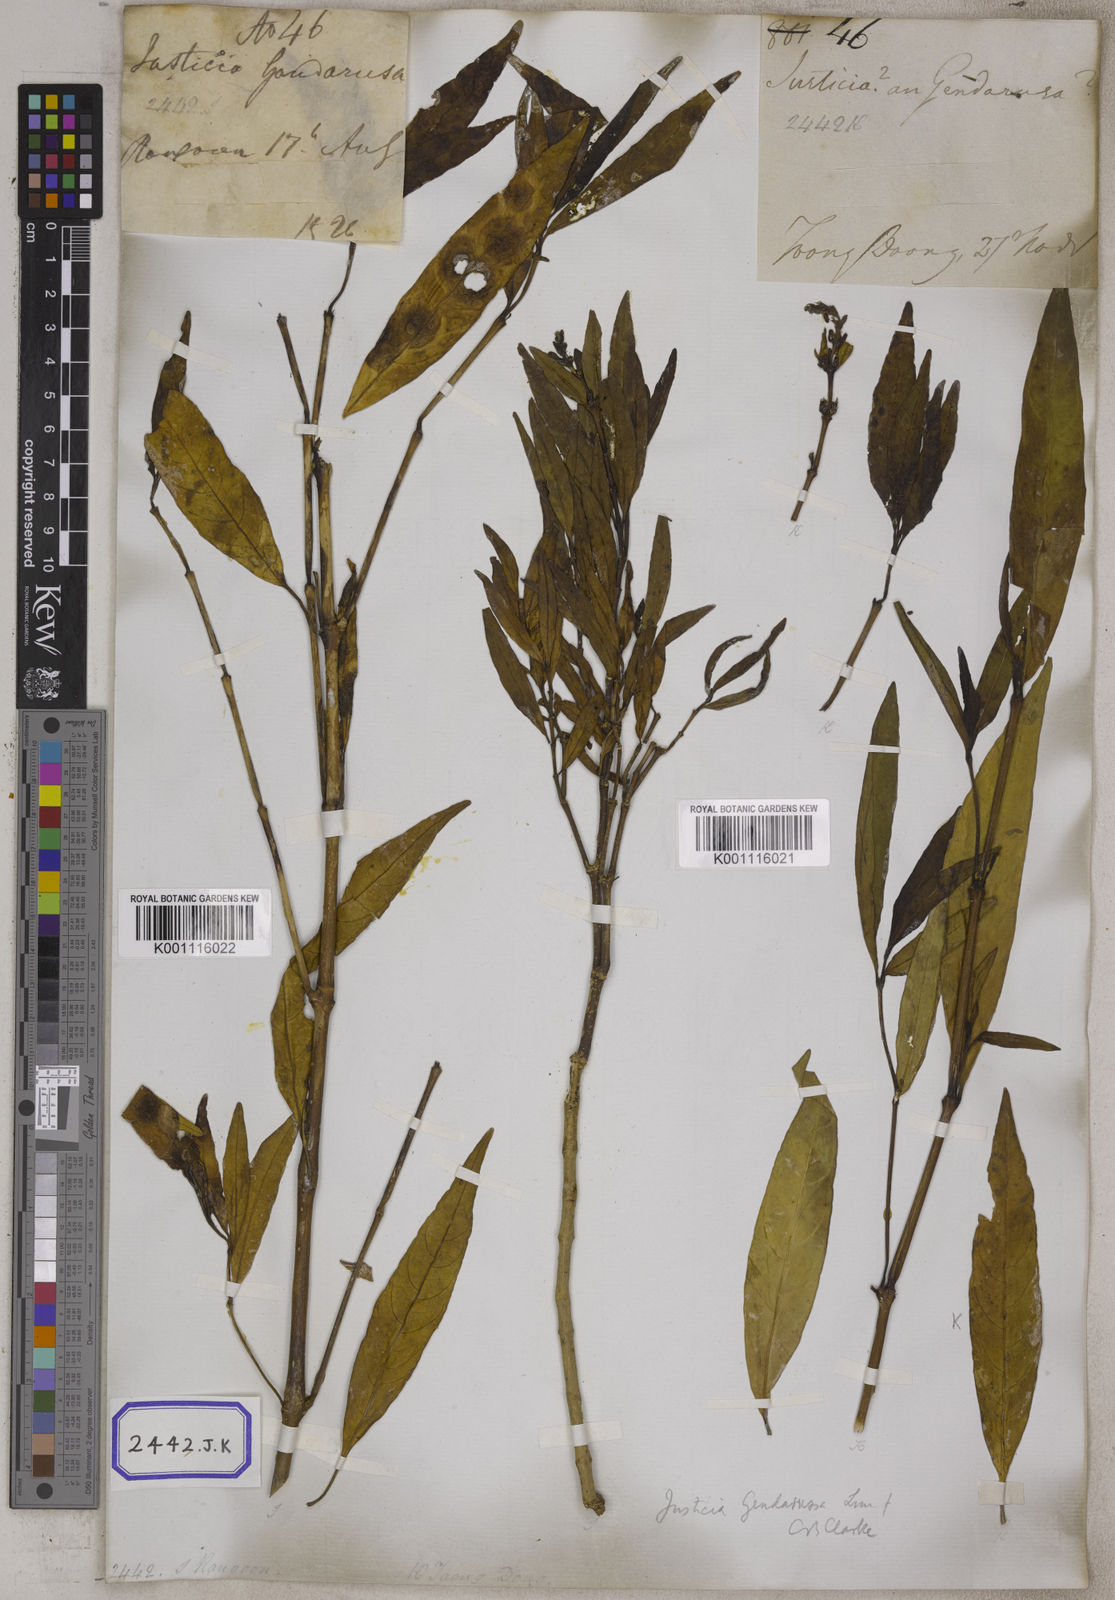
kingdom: Plantae
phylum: Tracheophyta
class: Magnoliopsida
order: Lamiales
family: Acanthaceae
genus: Justicia
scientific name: Justicia
